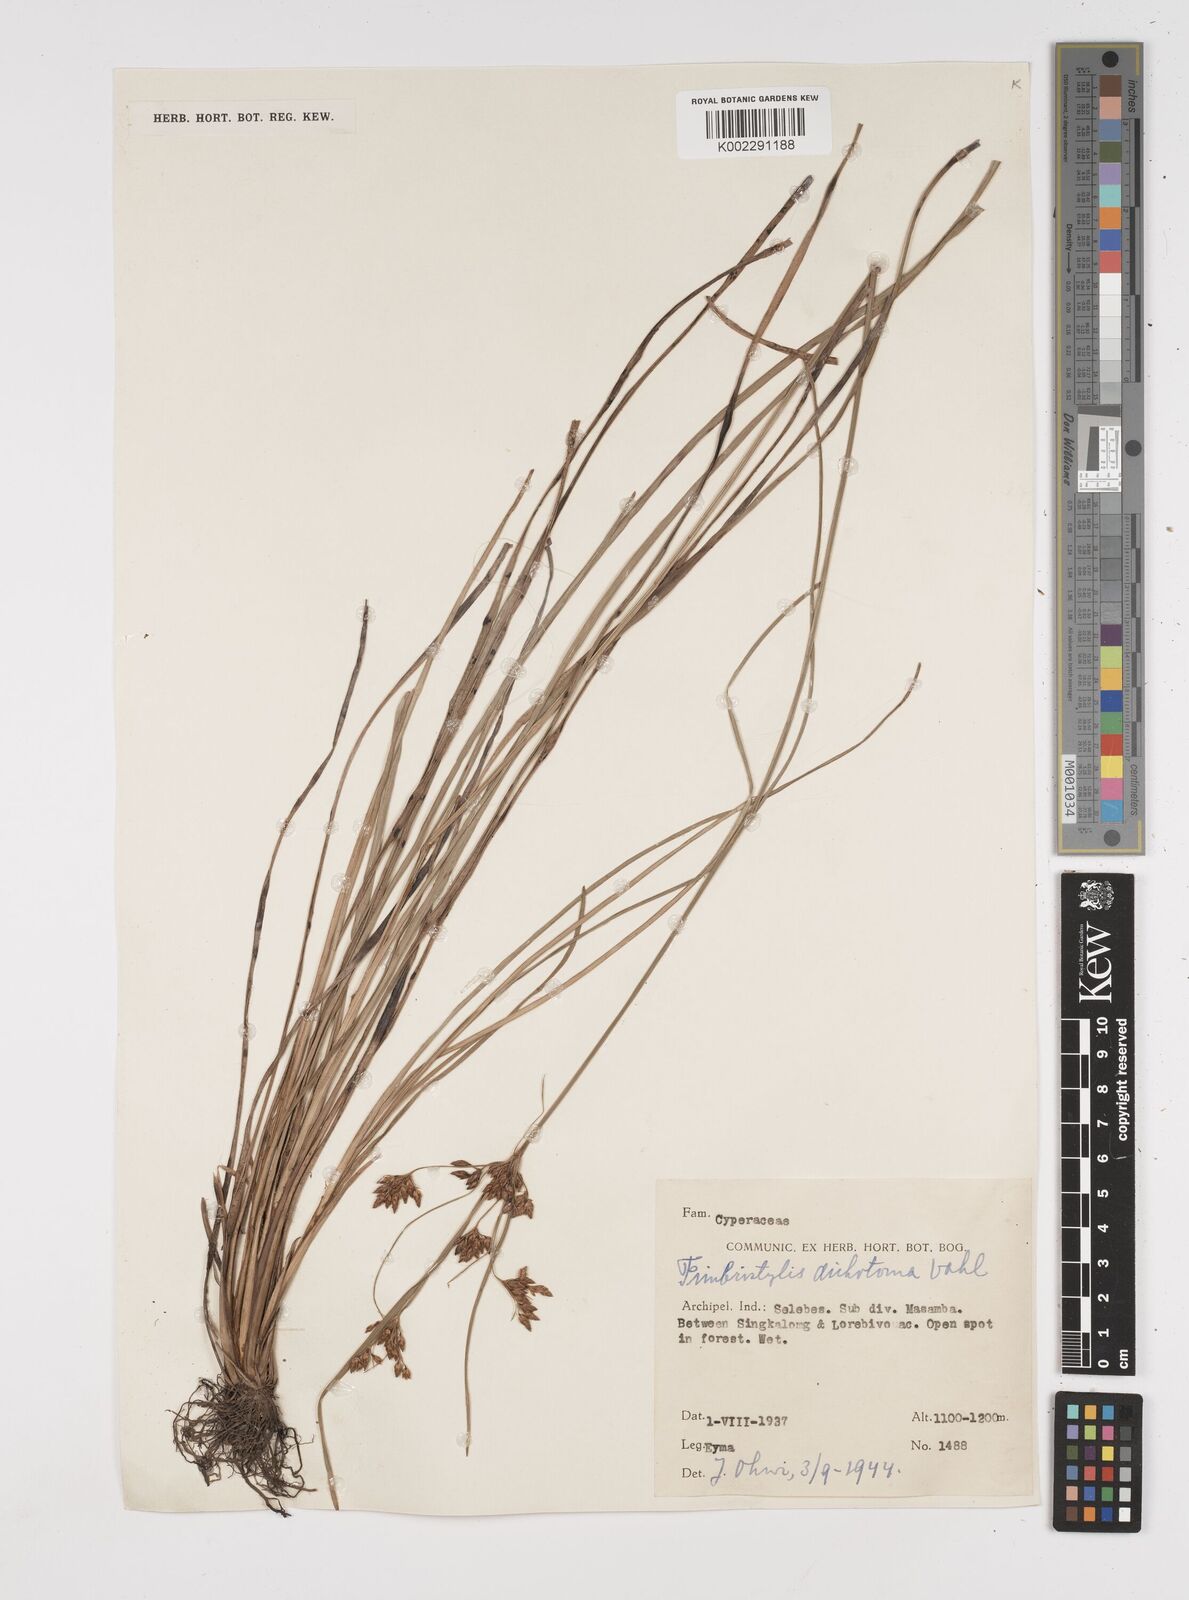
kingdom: Plantae
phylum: Tracheophyta
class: Liliopsida
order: Poales
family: Cyperaceae
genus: Fimbristylis
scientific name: Fimbristylis dichotoma
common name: Forked fimbry
